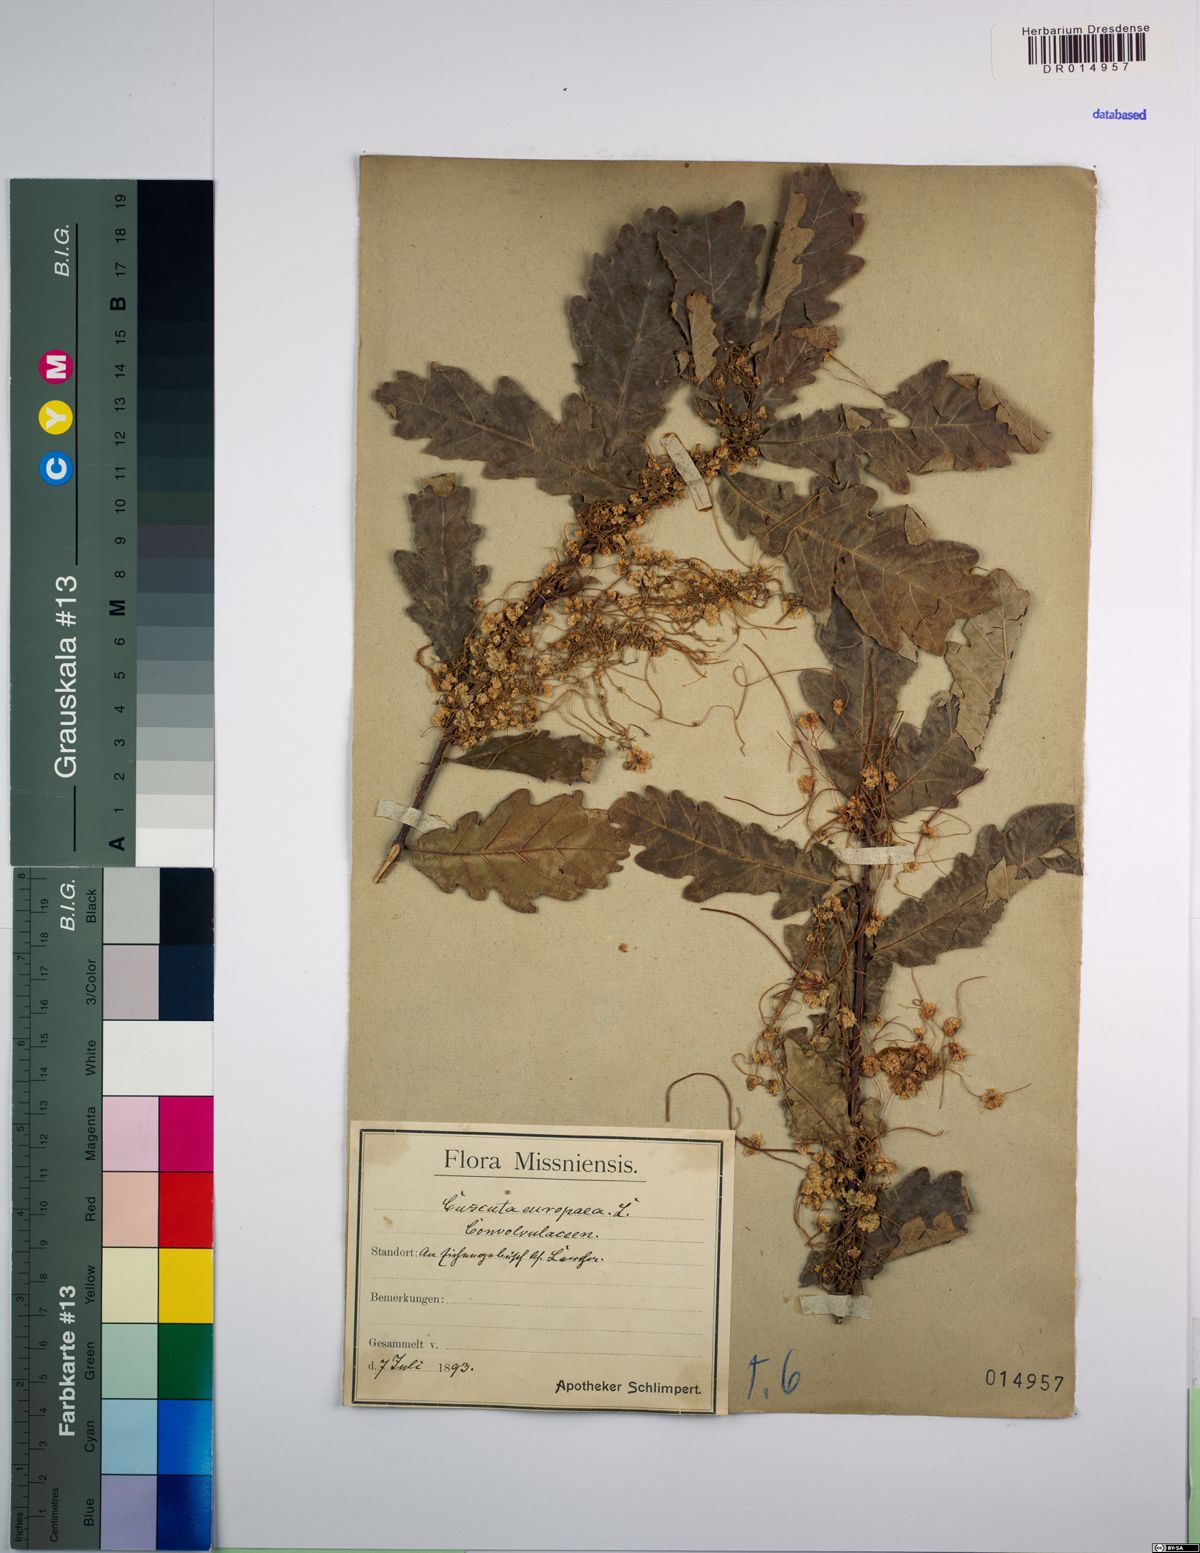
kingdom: Plantae
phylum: Tracheophyta
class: Magnoliopsida
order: Solanales
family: Convolvulaceae
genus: Cuscuta
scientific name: Cuscuta europaea
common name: Greater dodder
